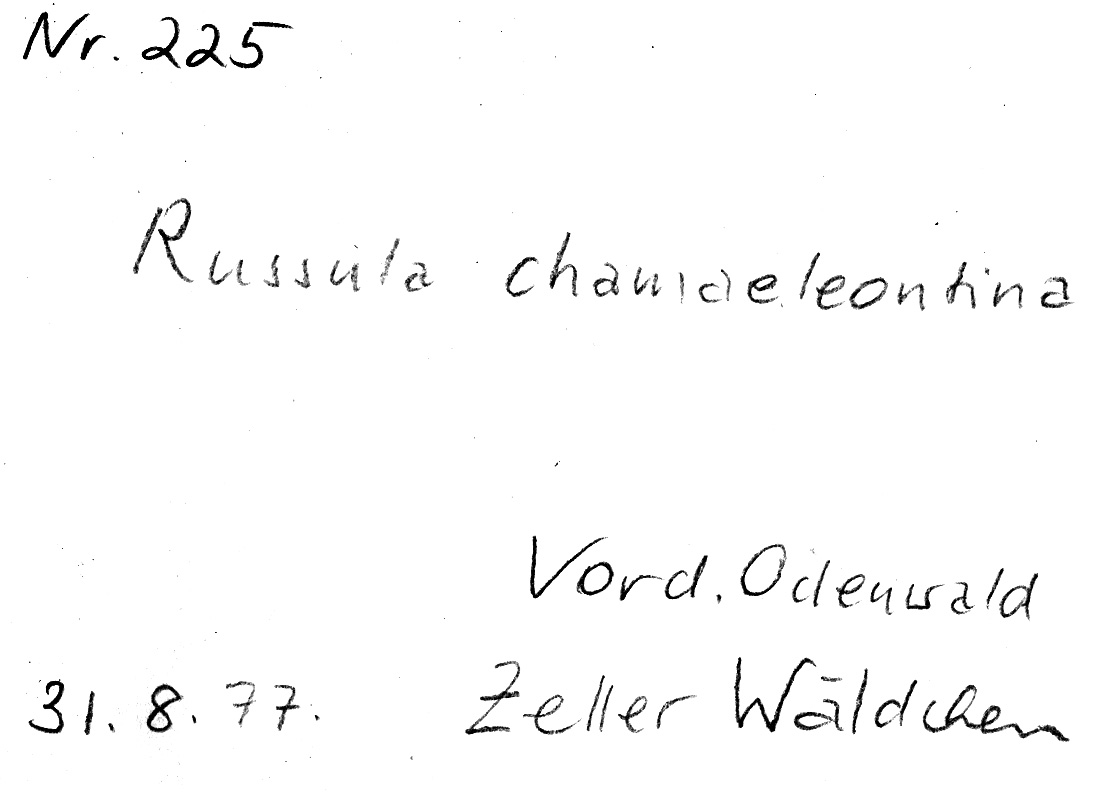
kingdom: Fungi
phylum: Basidiomycota
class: Agaricomycetes
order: Russulales
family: Russulaceae
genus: Russula
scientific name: Russula risigallina
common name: Golden brittlegill
